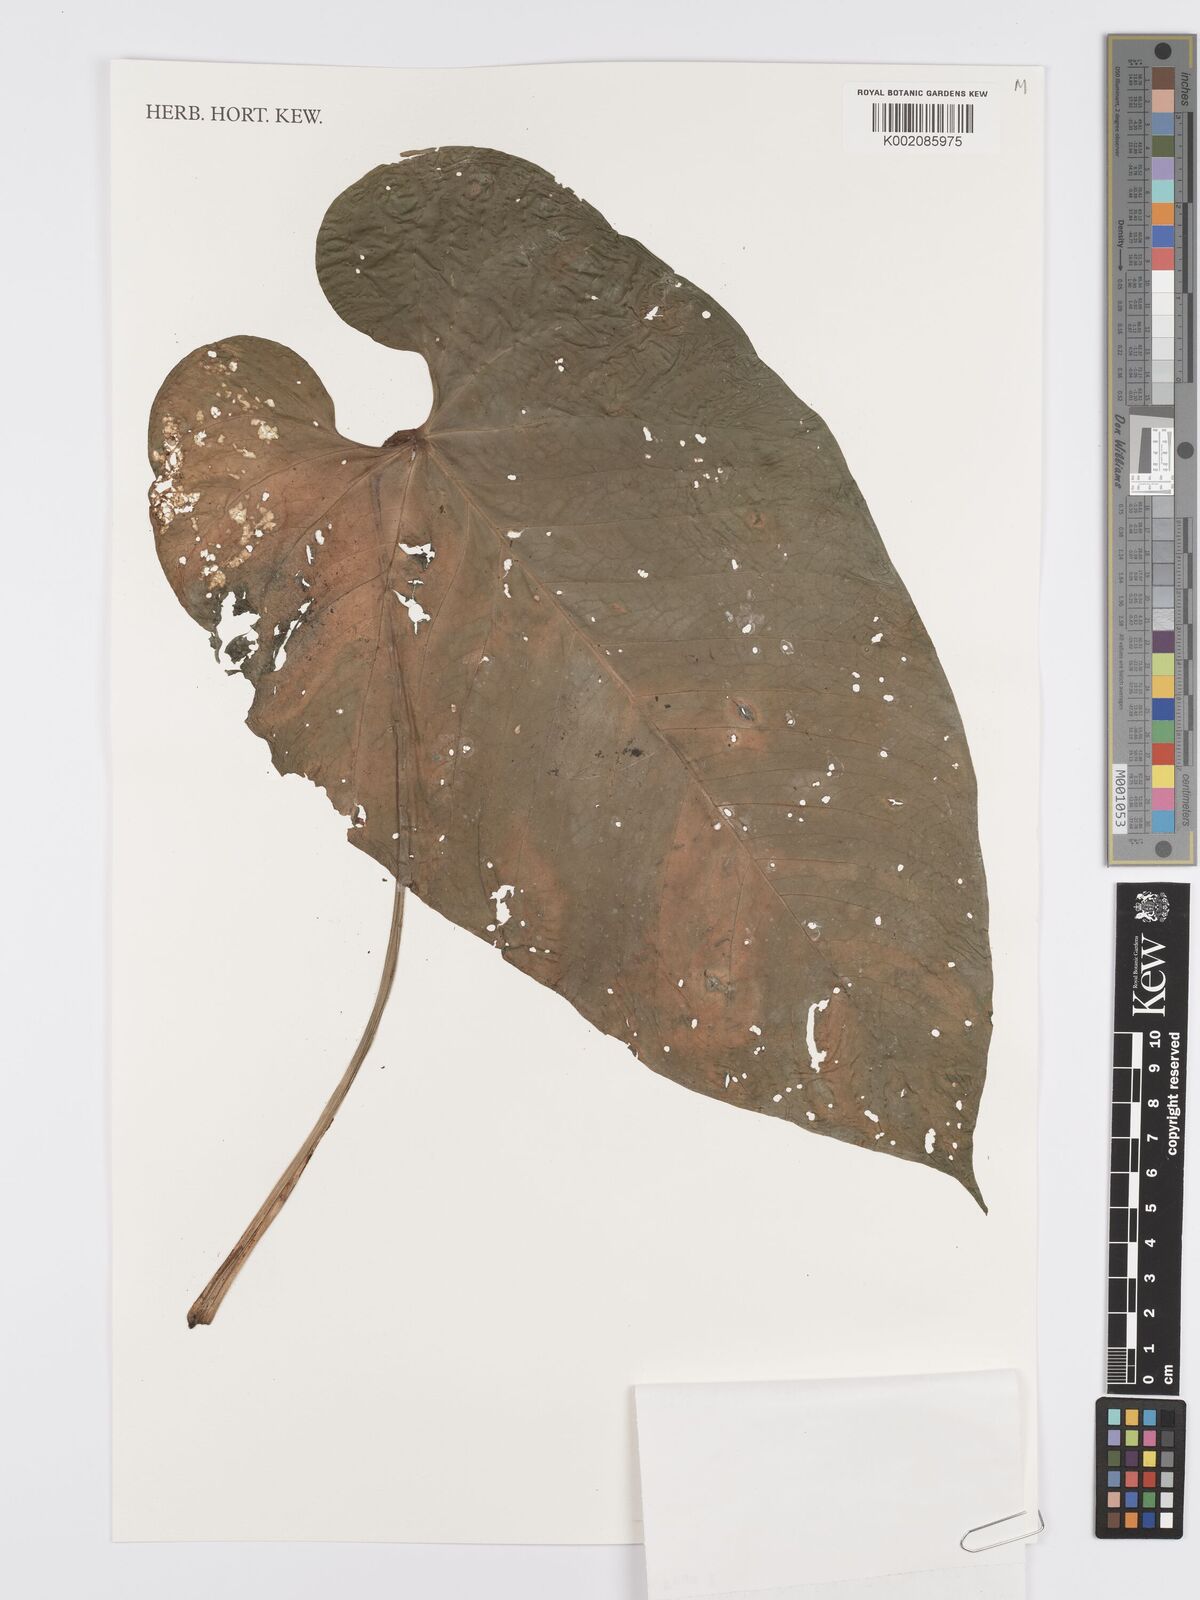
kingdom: Plantae
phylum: Tracheophyta
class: Liliopsida
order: Alismatales
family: Araceae
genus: Anthurium
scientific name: Anthurium dolichostachyum
